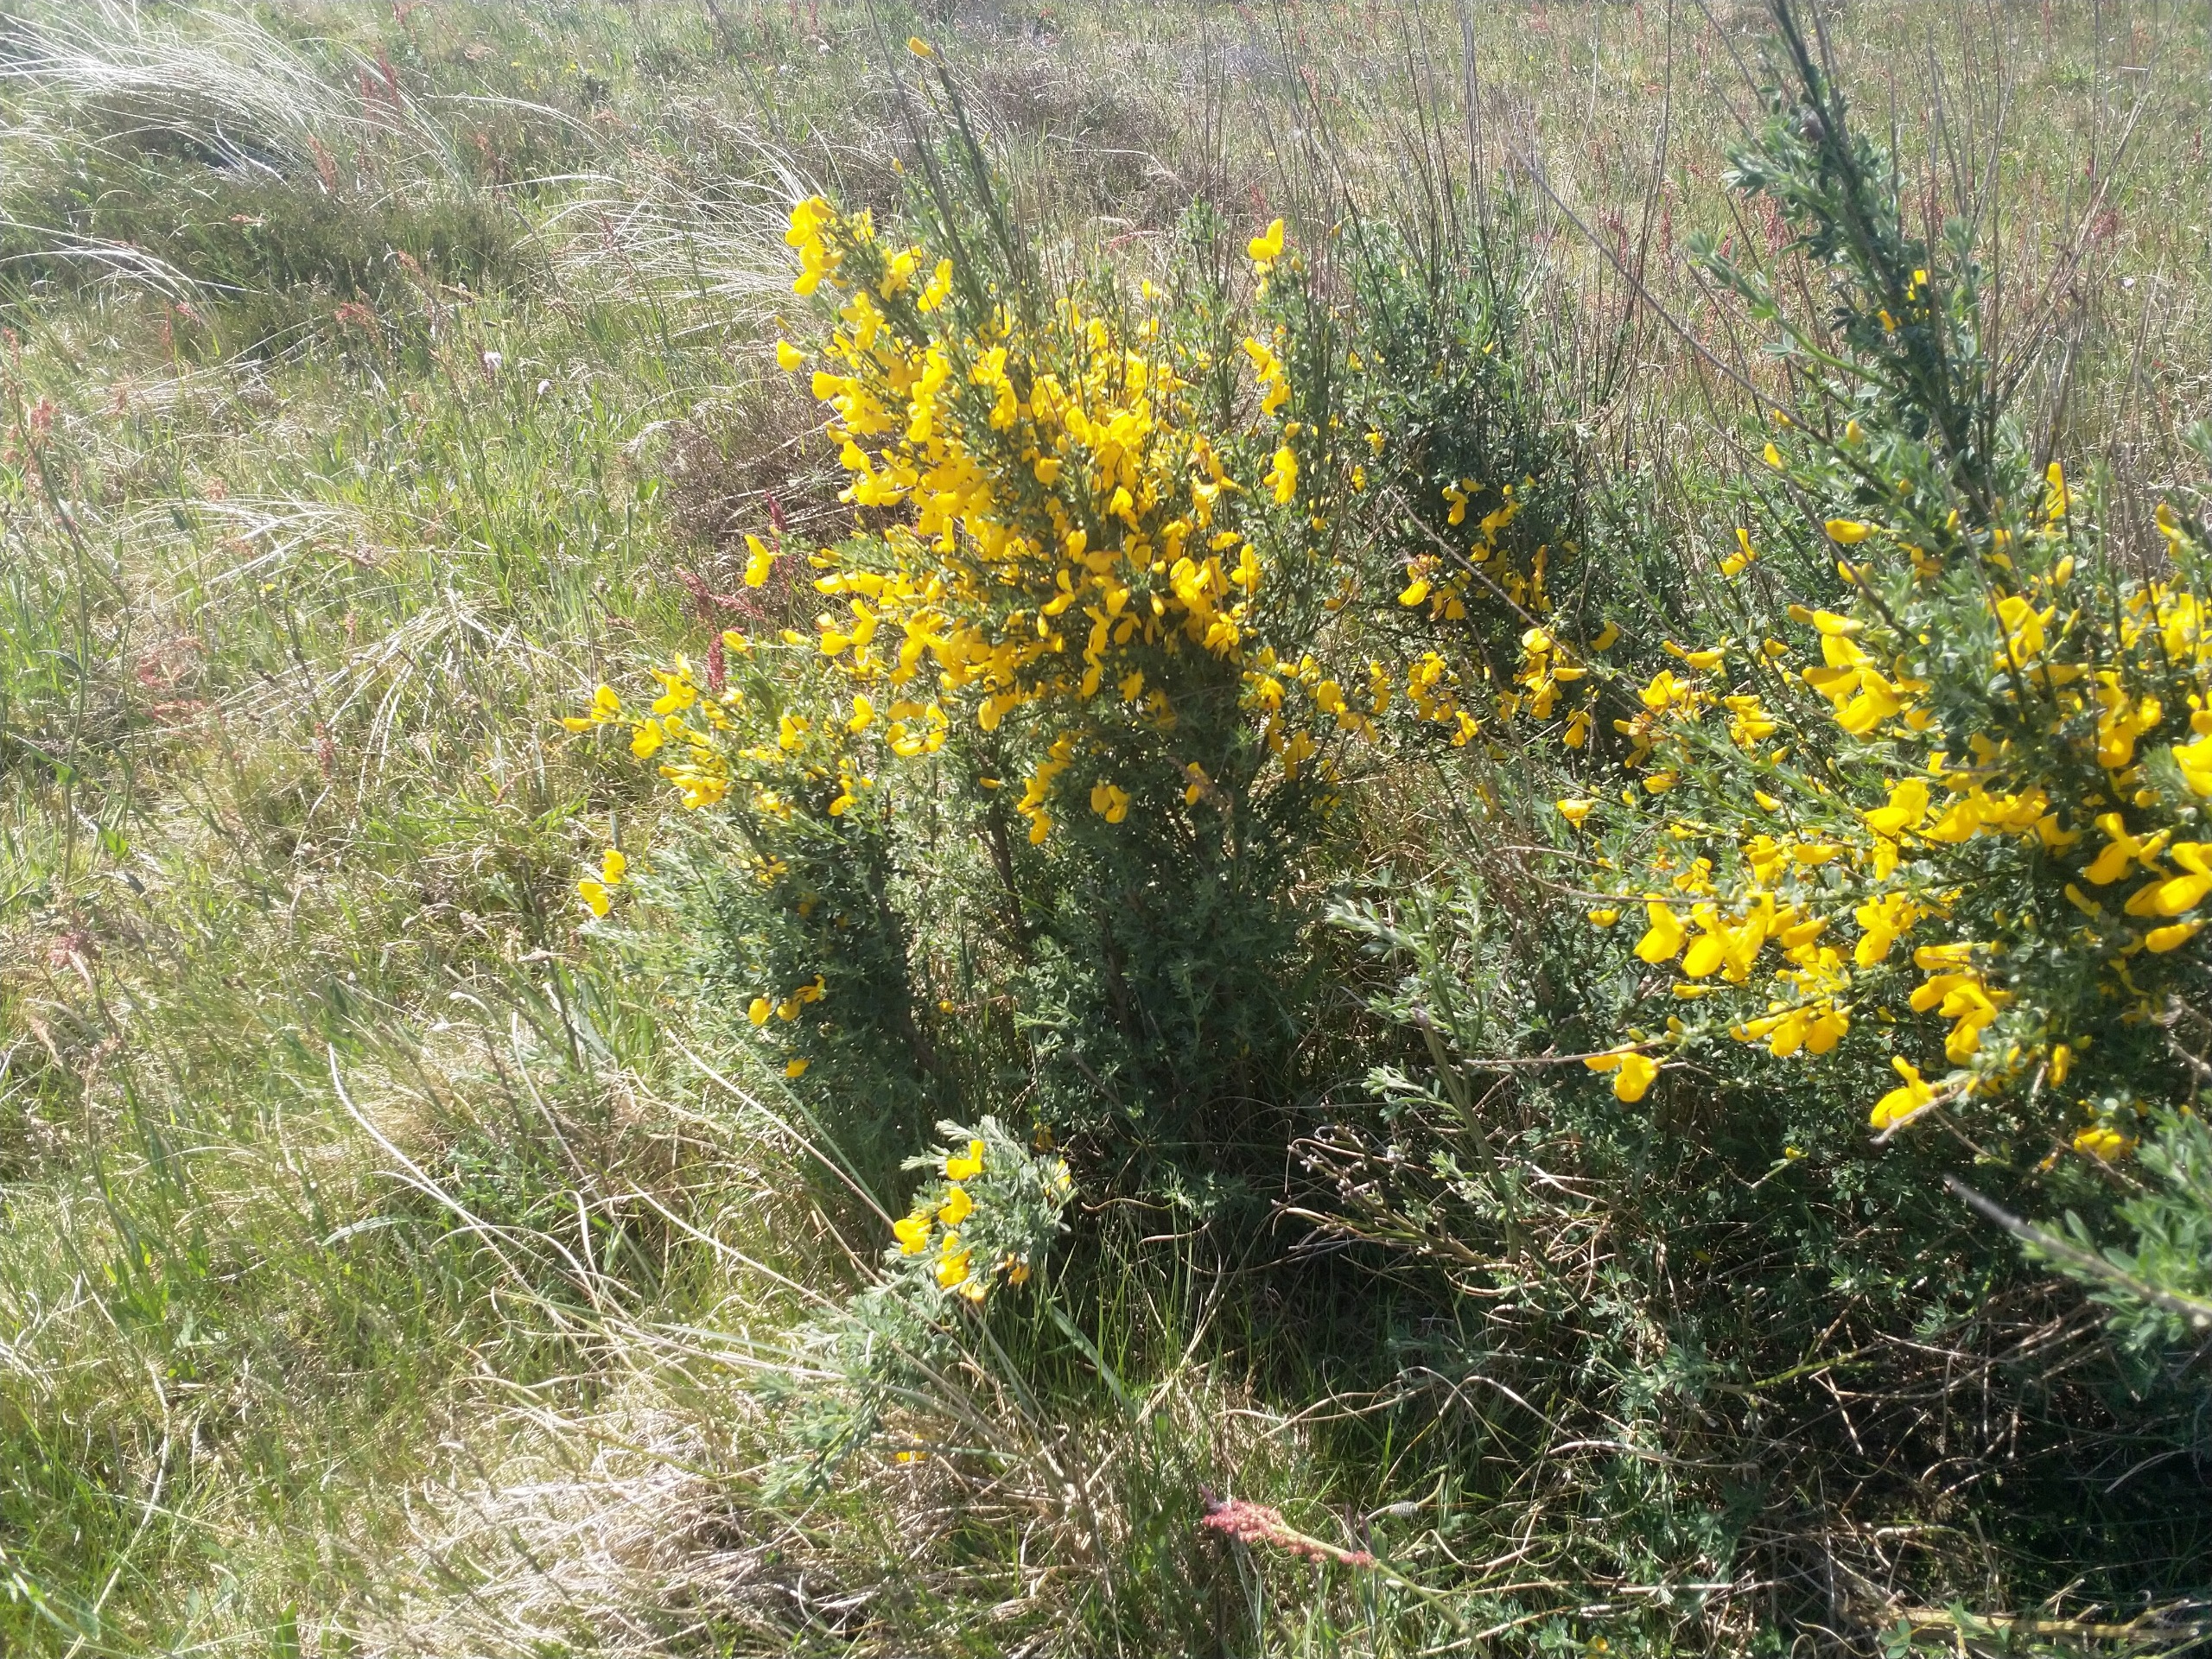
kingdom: Plantae
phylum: Tracheophyta
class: Magnoliopsida
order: Fabales
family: Fabaceae
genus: Cytisus
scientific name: Cytisus scoparius
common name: Almindelig gyvel
